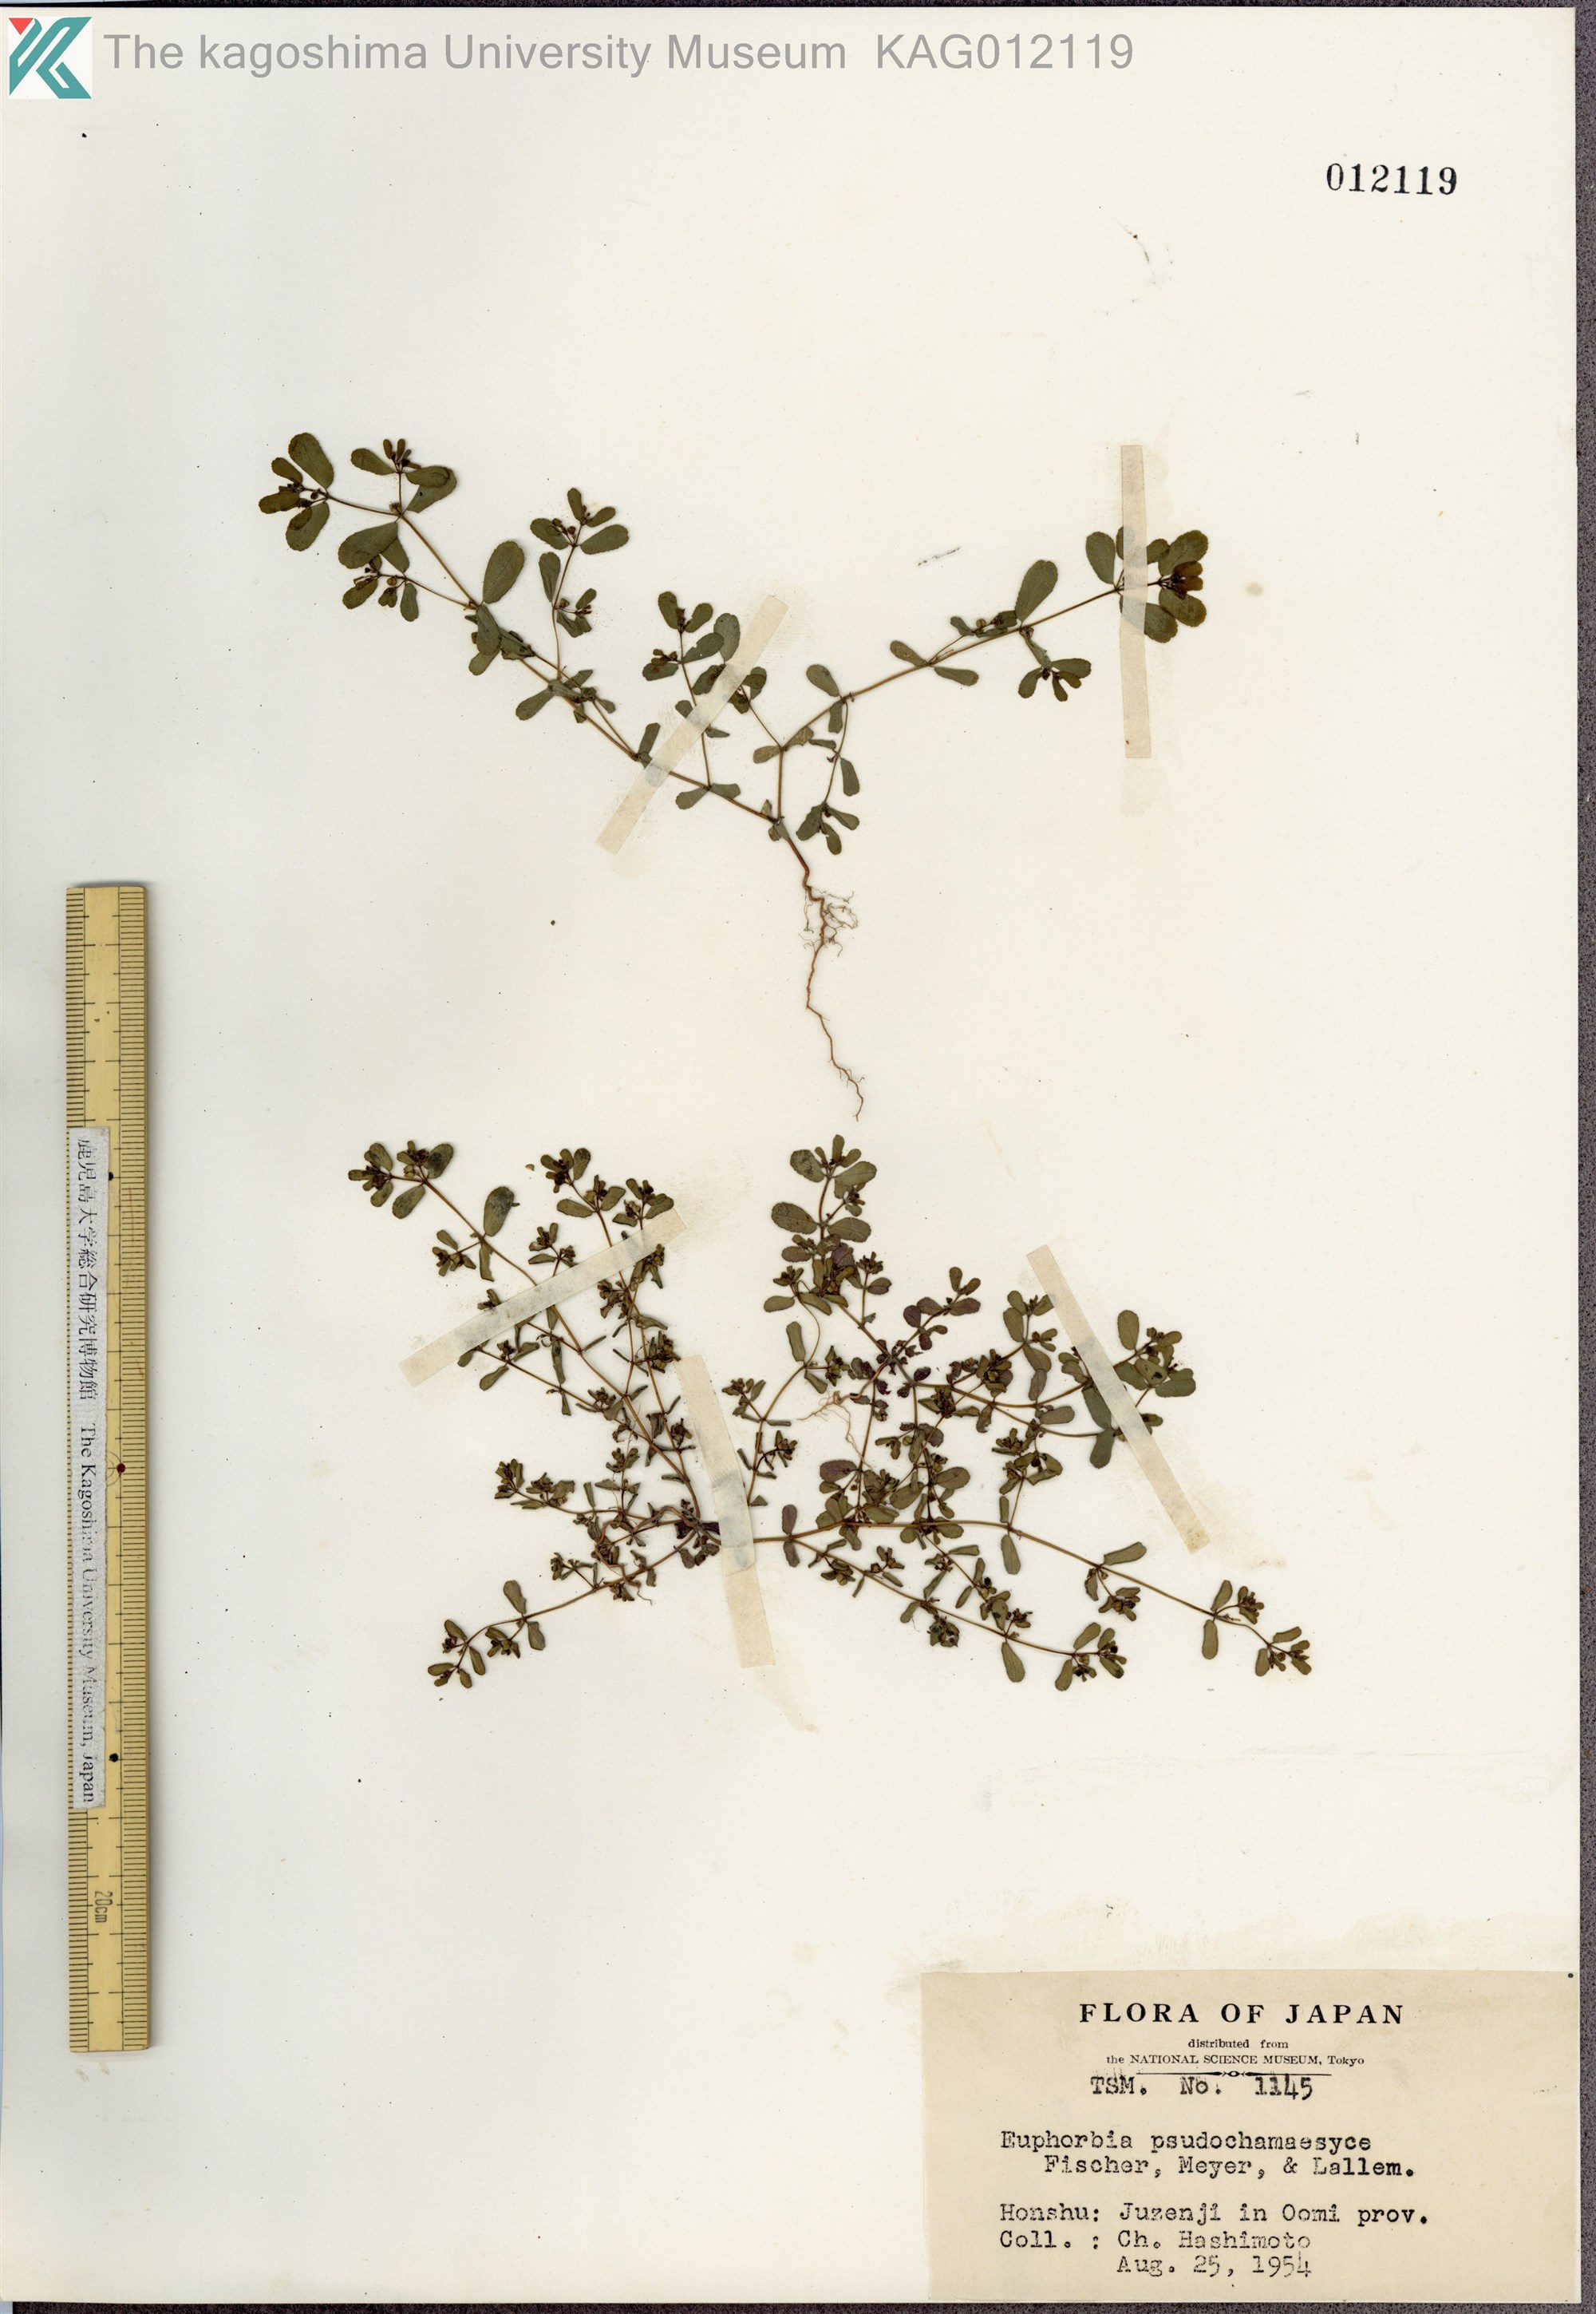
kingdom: Plantae
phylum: Tracheophyta
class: Magnoliopsida
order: Malpighiales
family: Euphorbiaceae
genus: Euphorbia
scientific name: Euphorbia humifusa
